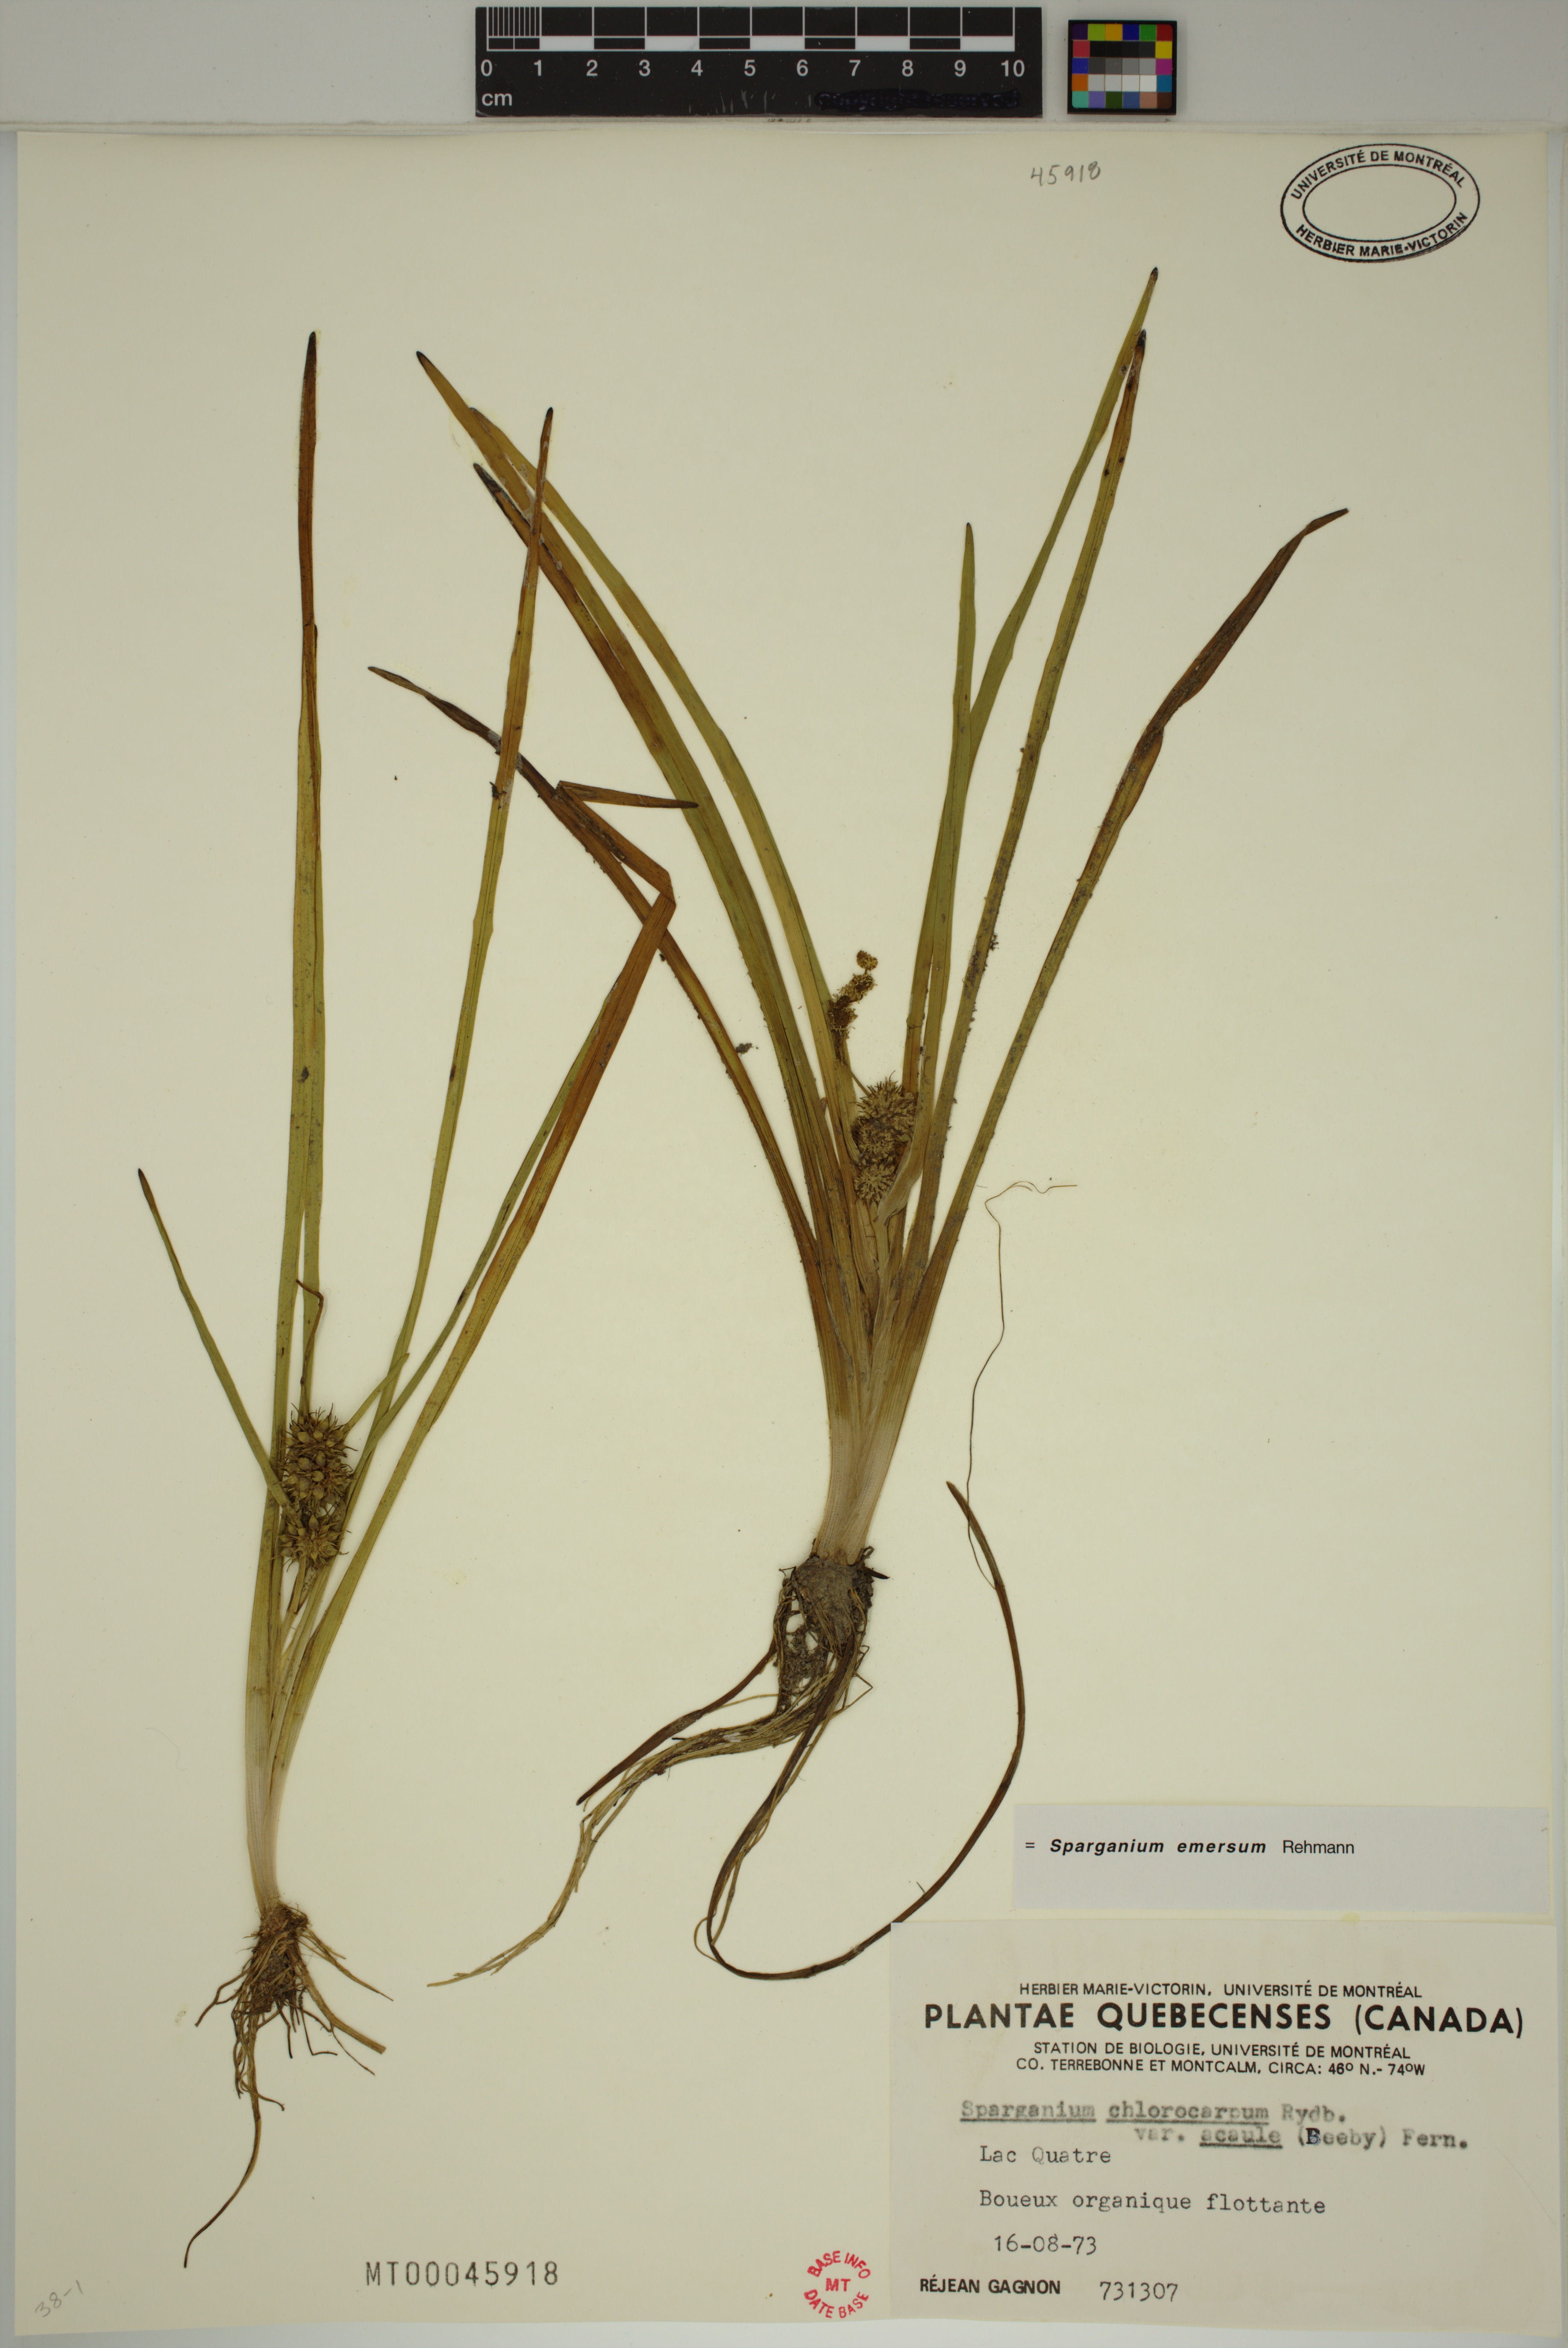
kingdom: Plantae
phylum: Tracheophyta
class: Liliopsida
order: Poales
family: Typhaceae
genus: Sparganium
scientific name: Sparganium emersum
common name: Unbranched bur-reed
